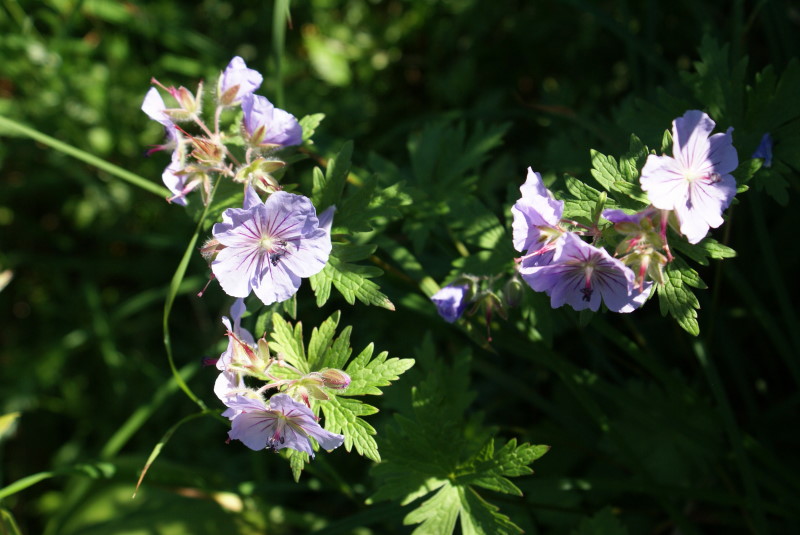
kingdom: Plantae
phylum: Tracheophyta
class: Magnoliopsida
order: Geraniales
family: Geraniaceae
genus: Geranium
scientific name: Geranium erianthum
